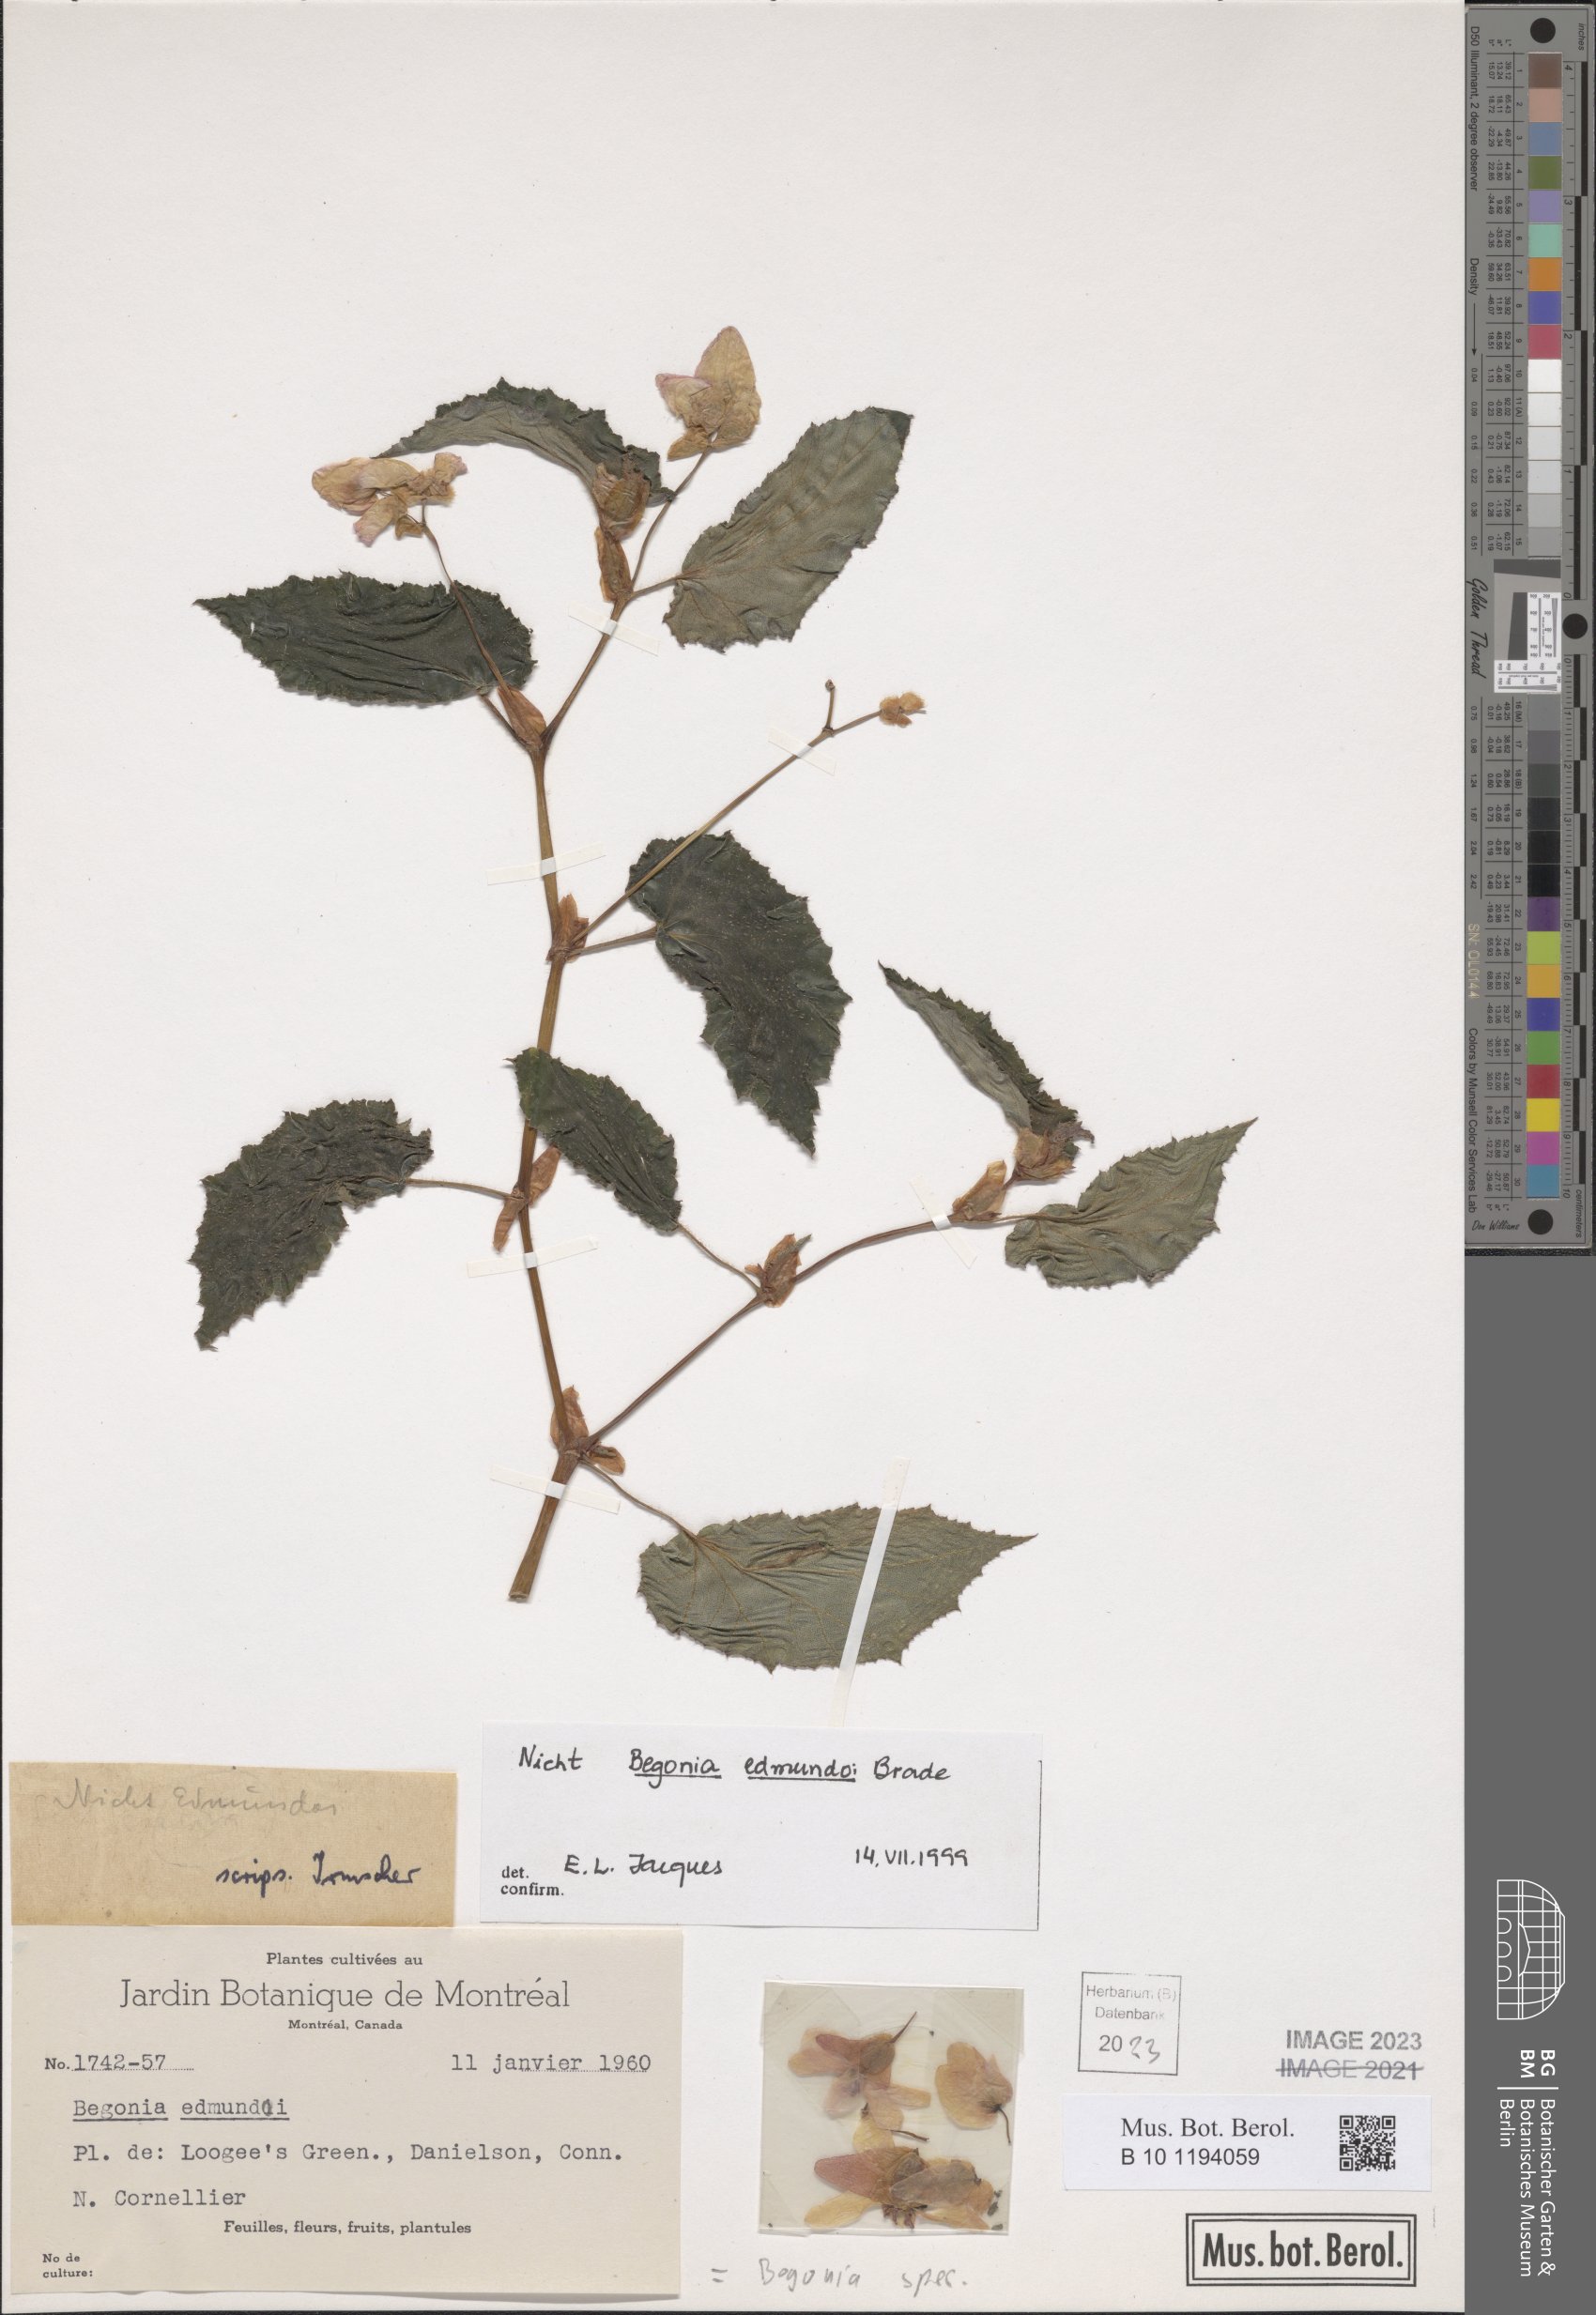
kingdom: Plantae
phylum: Tracheophyta
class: Magnoliopsida
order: Cucurbitales
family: Begoniaceae
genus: Begonia
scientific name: Begonia
